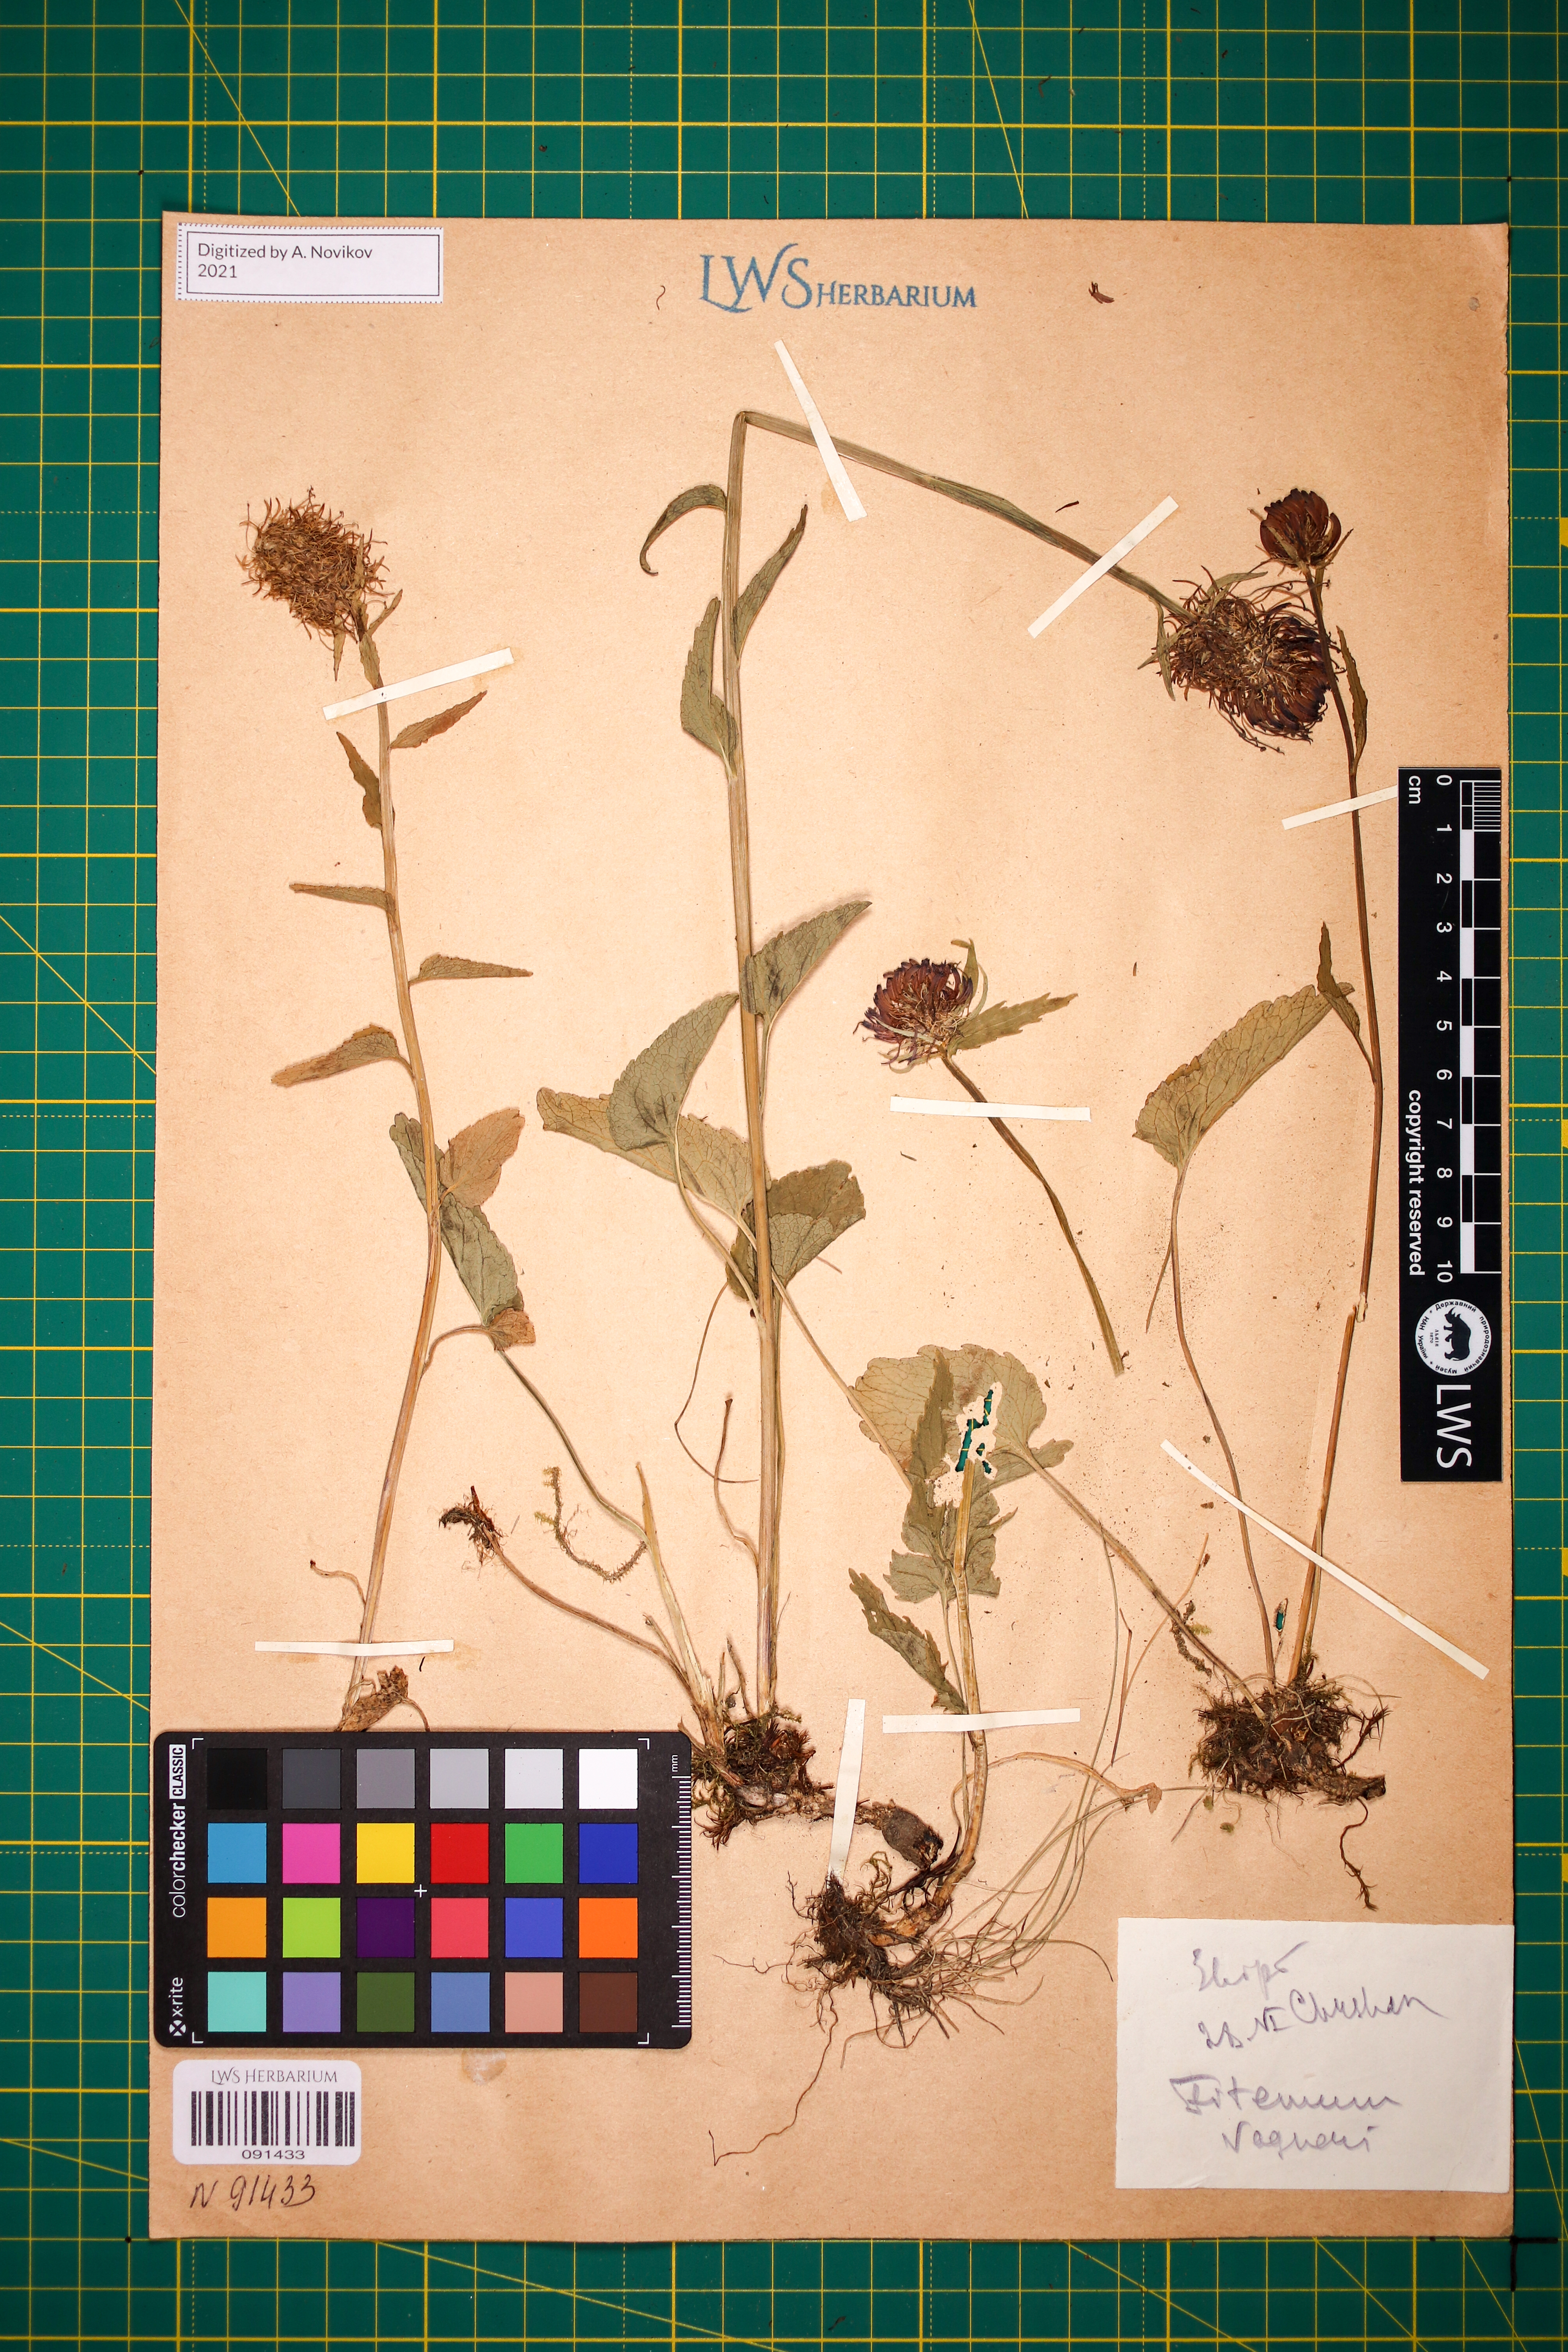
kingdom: Plantae
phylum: Tracheophyta
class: Magnoliopsida
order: Asterales
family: Campanulaceae
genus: Phyteuma
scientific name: Phyteuma vagneri
